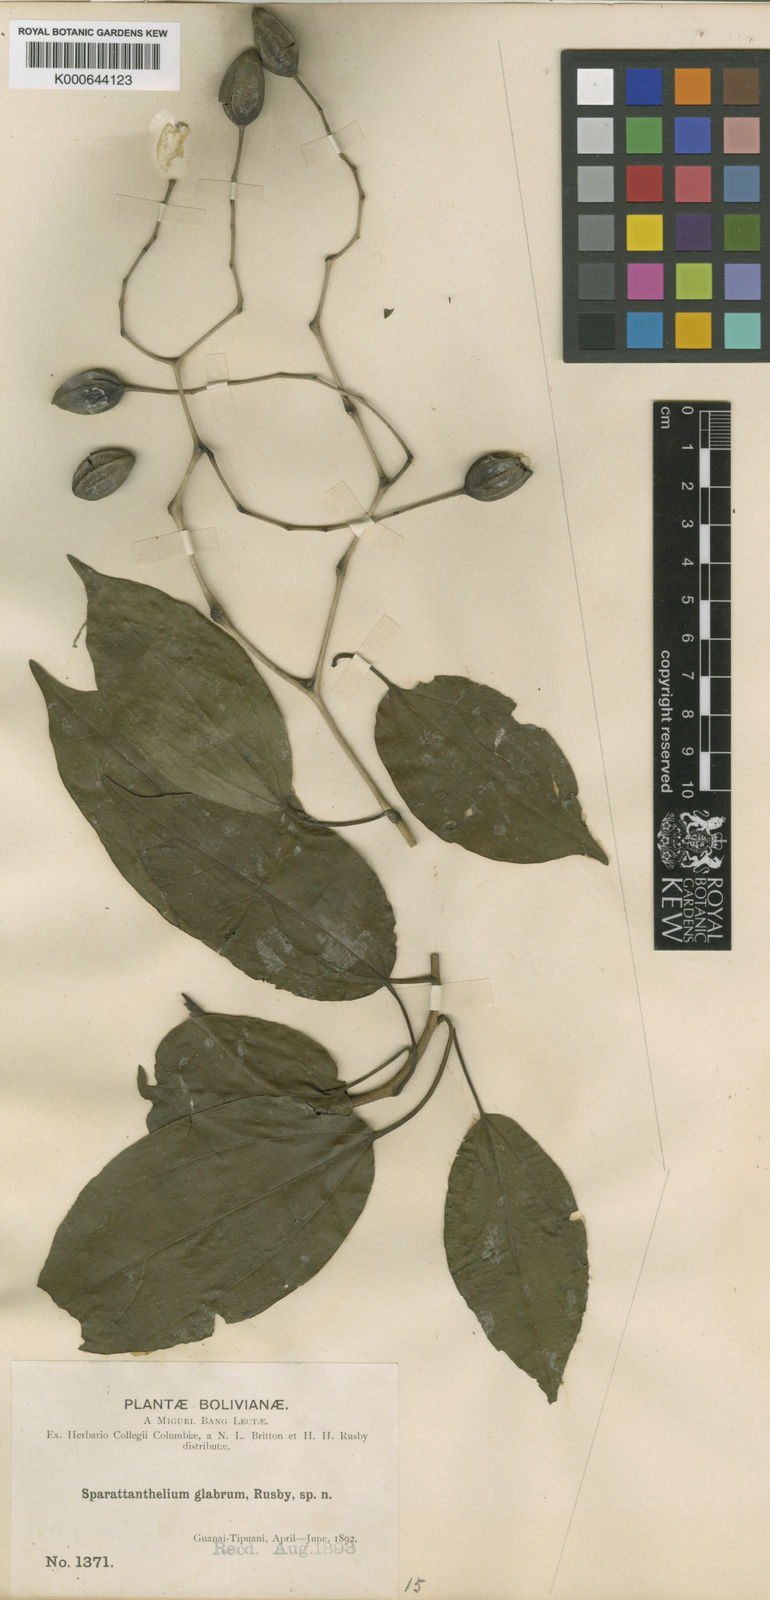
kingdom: Plantae
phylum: Tracheophyta
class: Magnoliopsida
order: Laurales
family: Hernandiaceae
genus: Sparattanthelium
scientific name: Sparattanthelium glabrum
